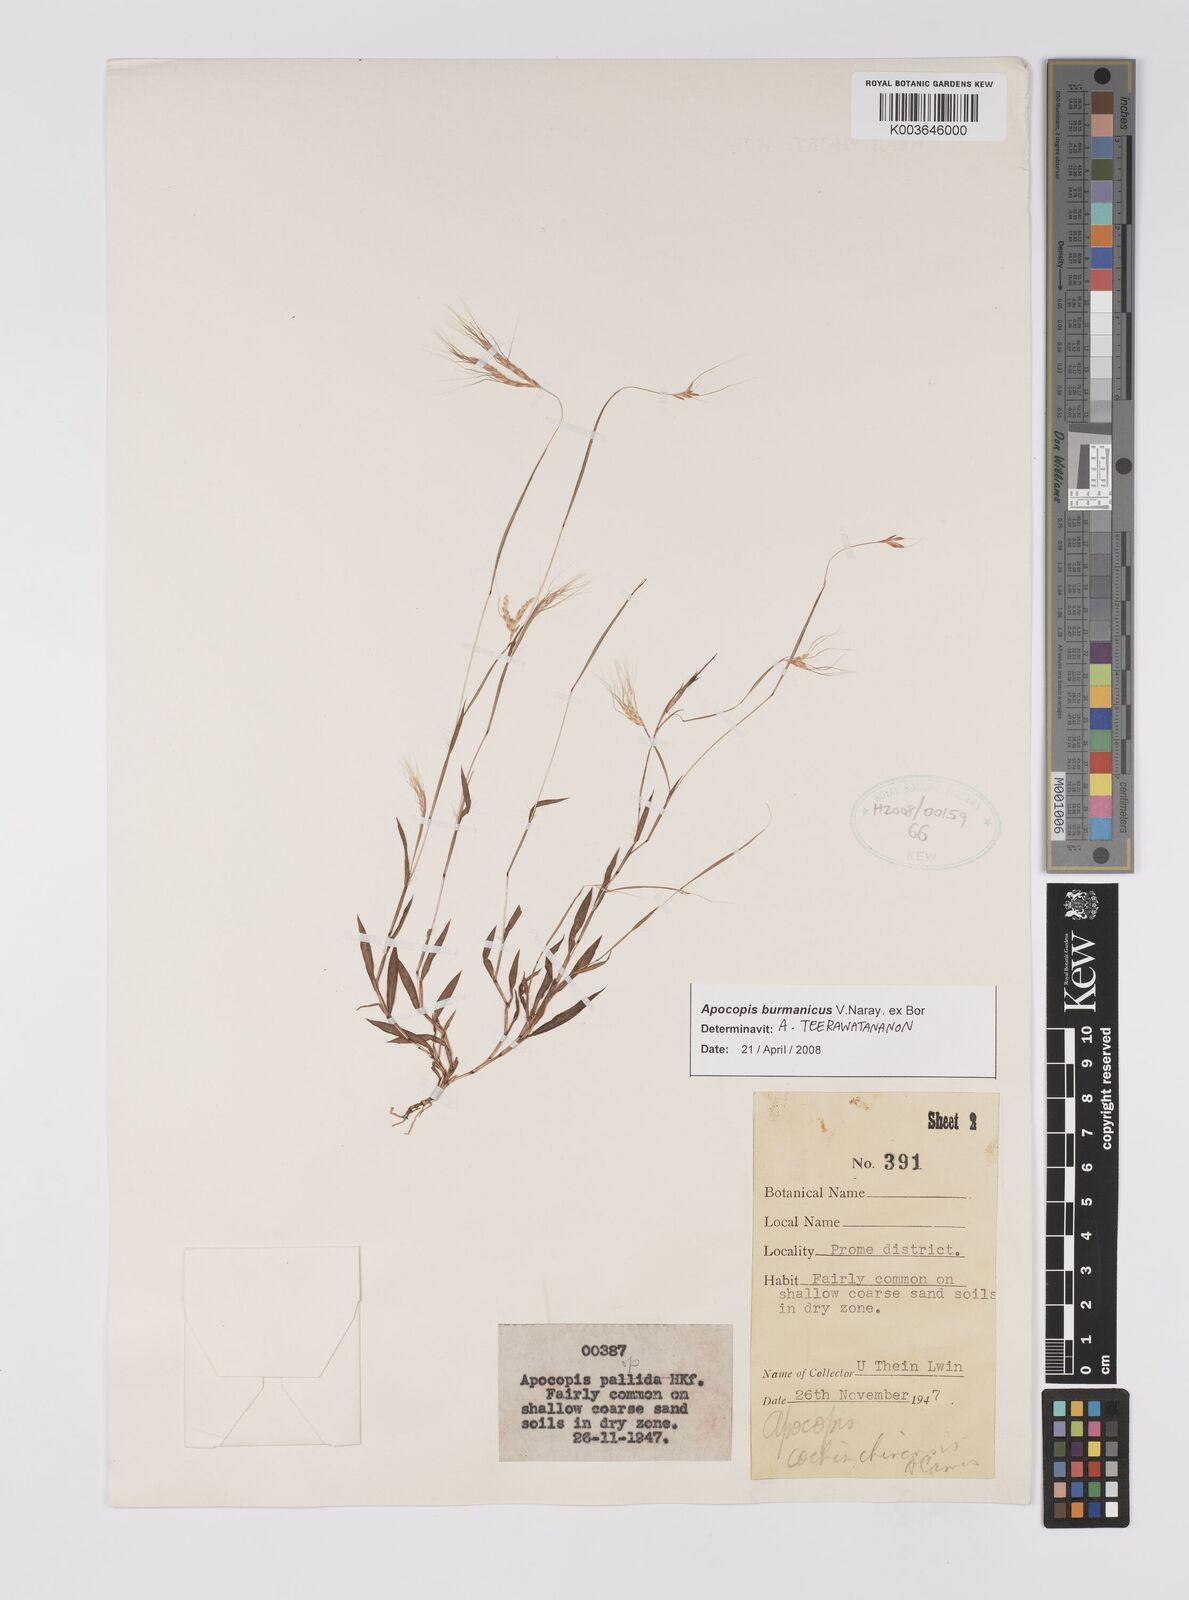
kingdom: Plantae
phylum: Tracheophyta
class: Liliopsida
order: Poales
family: Poaceae
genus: Apocopis
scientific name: Apocopis burmanicus
